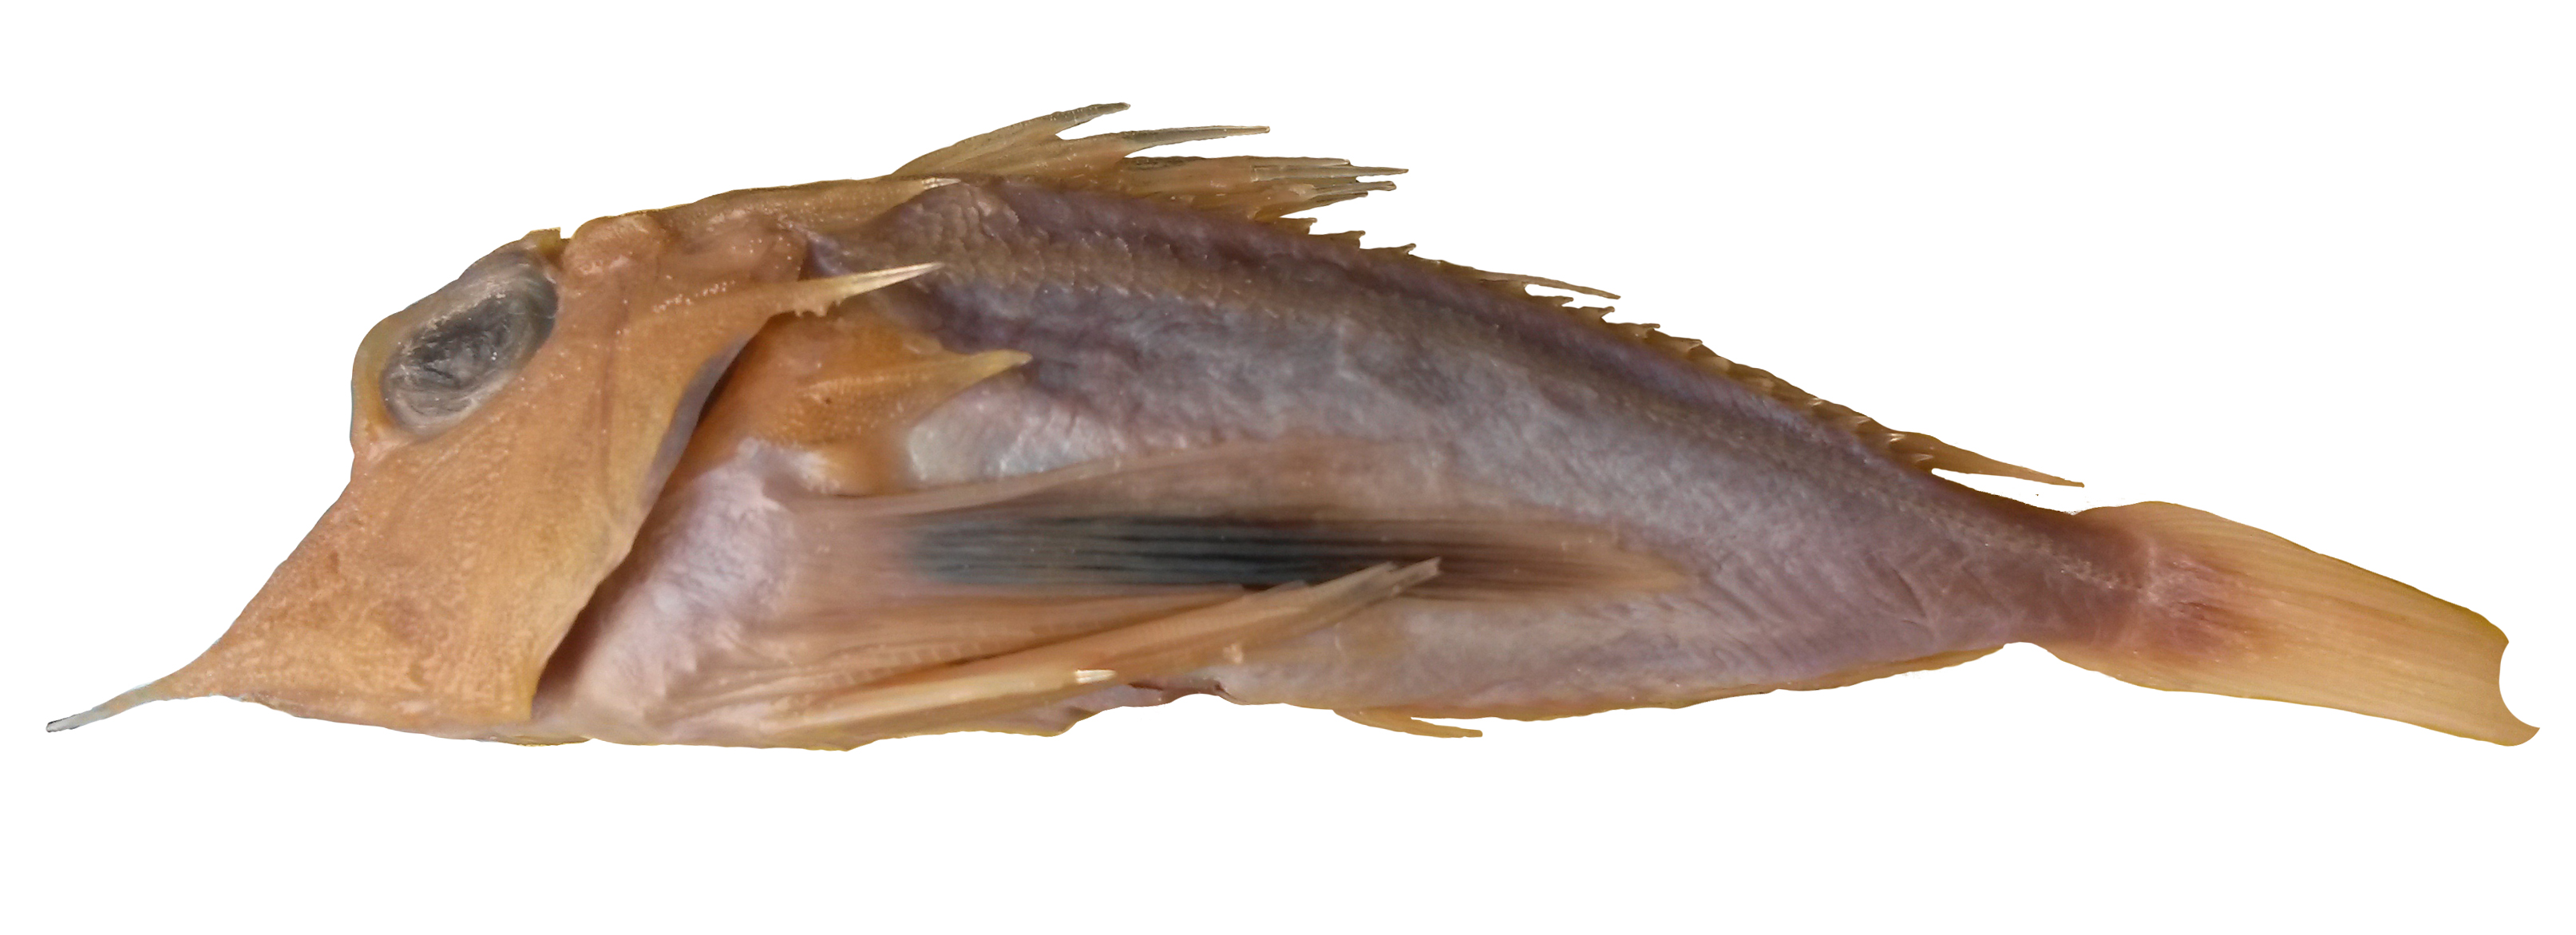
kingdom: Animalia
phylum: Chordata
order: Perciformes
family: Cichlidae
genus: Serranochromis
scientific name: Serranochromis macrocephalus
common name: Purpleface largemouth
